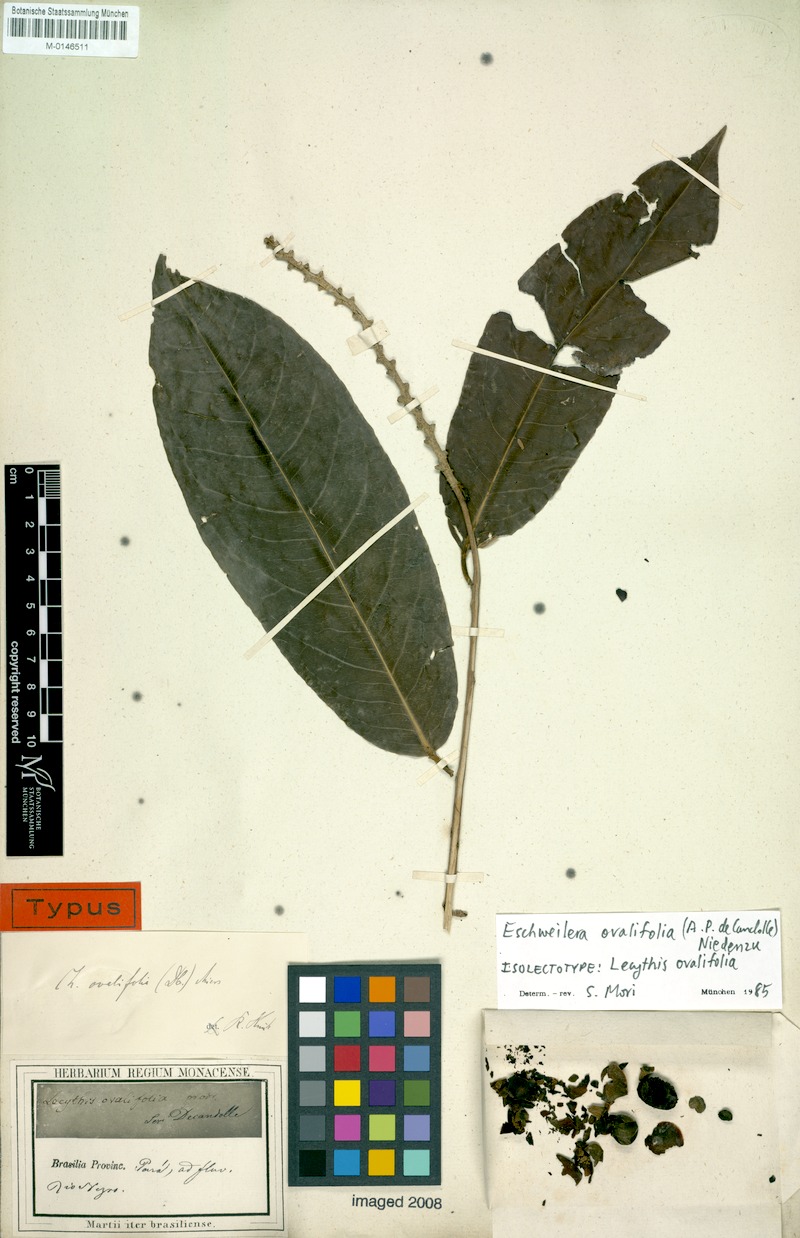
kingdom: Plantae
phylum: Tracheophyta
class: Magnoliopsida
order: Ericales
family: Lecythidaceae
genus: Eschweilera
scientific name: Eschweilera ovalifolia
